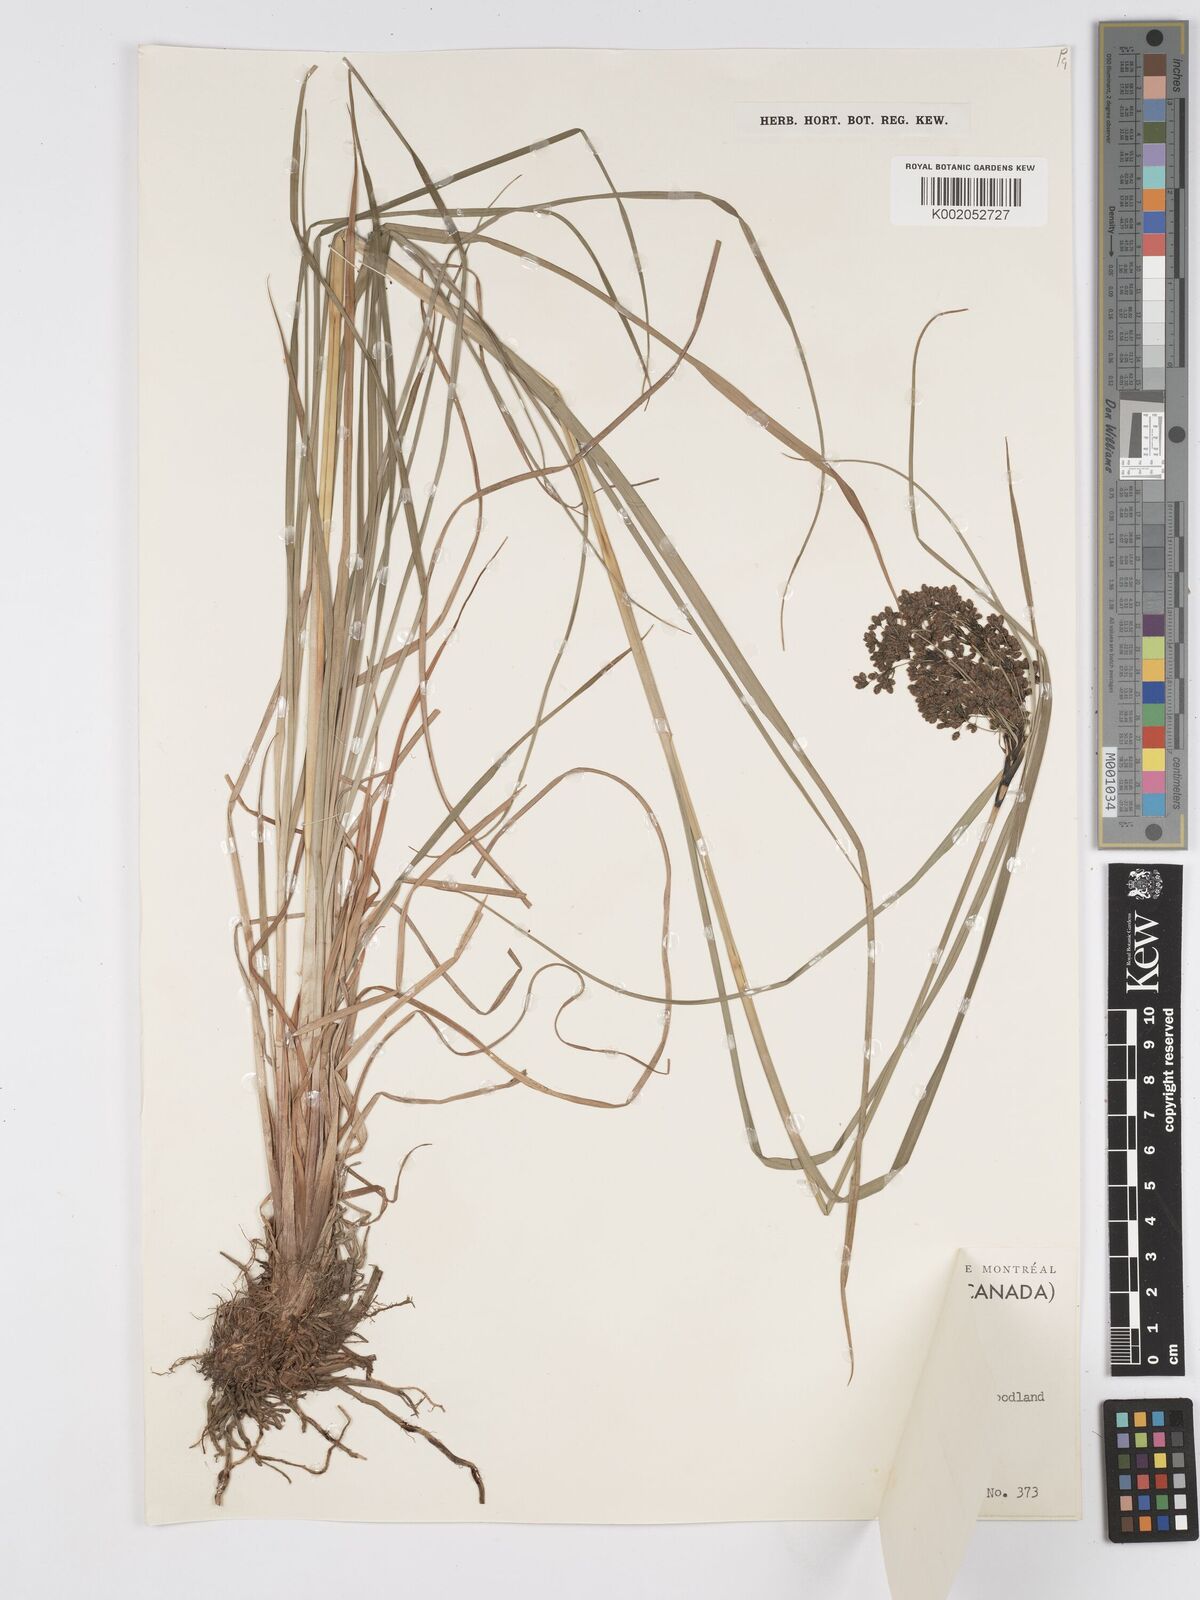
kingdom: Plantae
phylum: Tracheophyta
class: Liliopsida
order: Poales
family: Cyperaceae
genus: Scirpus
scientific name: Scirpus cyperinus
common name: Black-sheathed bulrush
